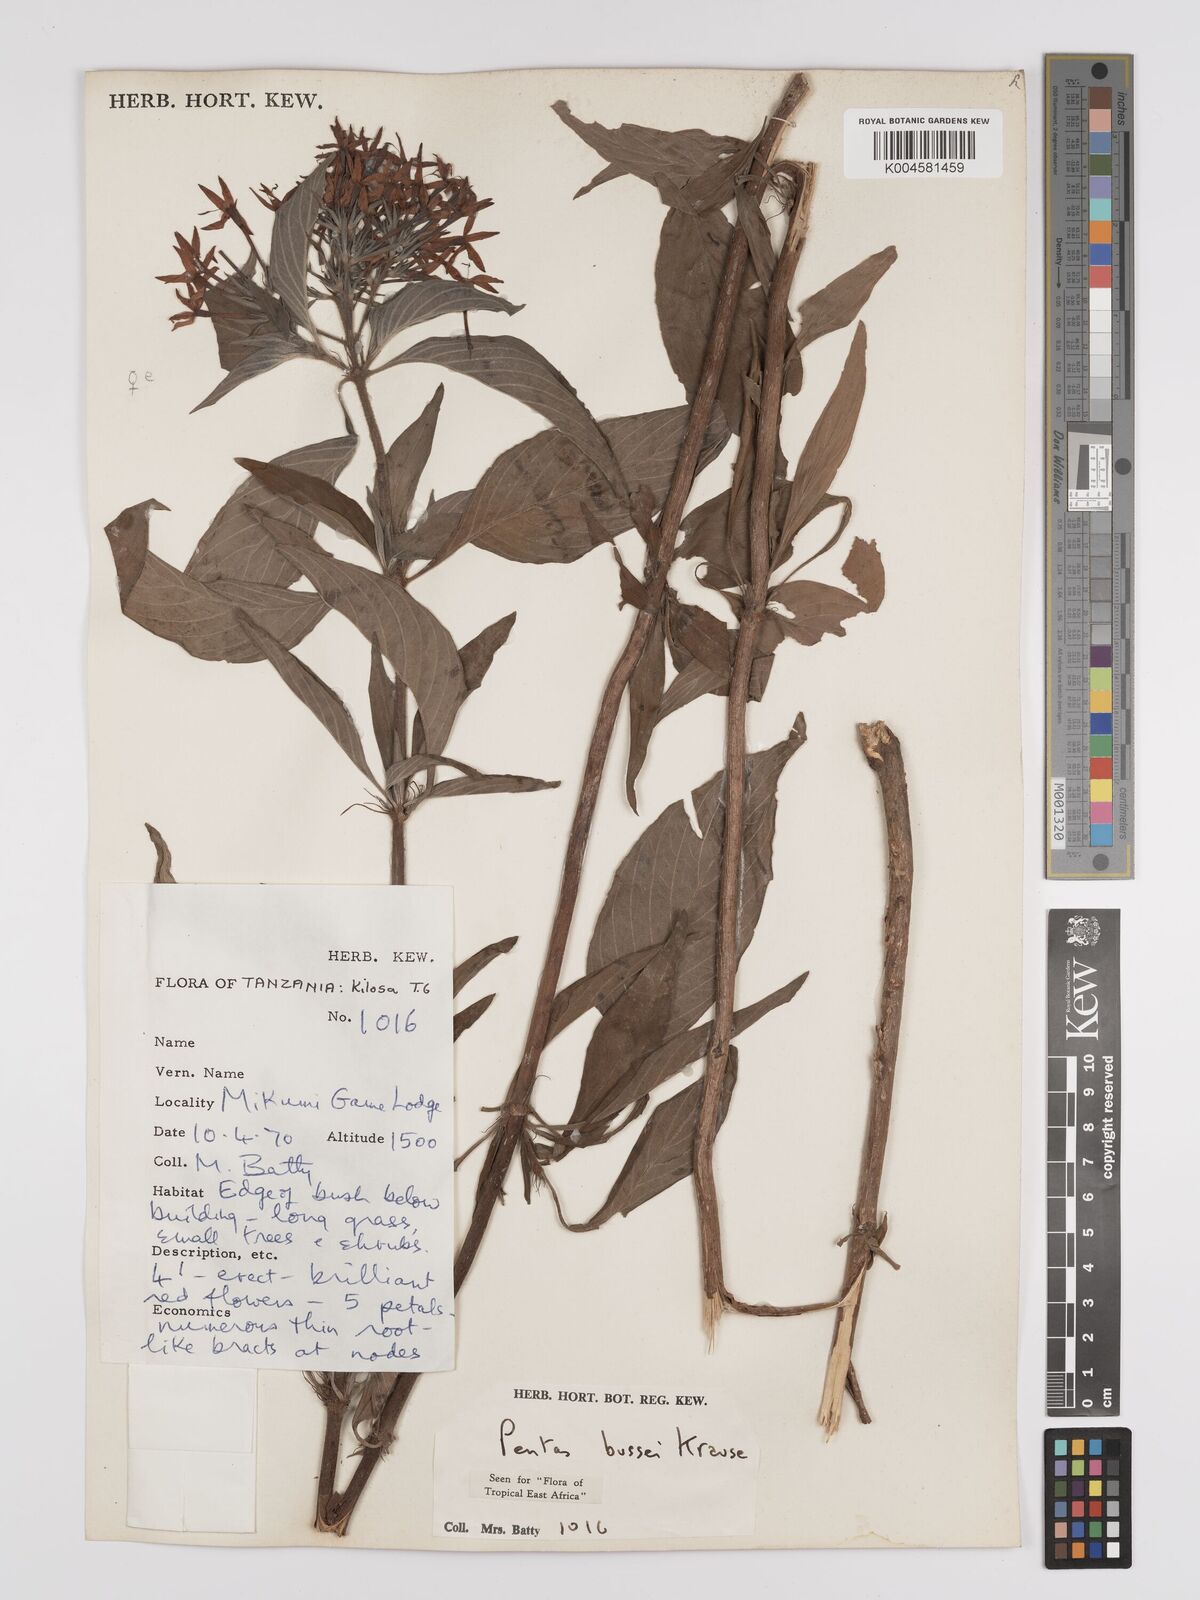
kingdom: Plantae
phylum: Tracheophyta
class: Magnoliopsida
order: Gentianales
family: Rubiaceae
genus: Rhodopentas
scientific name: Rhodopentas bussei
